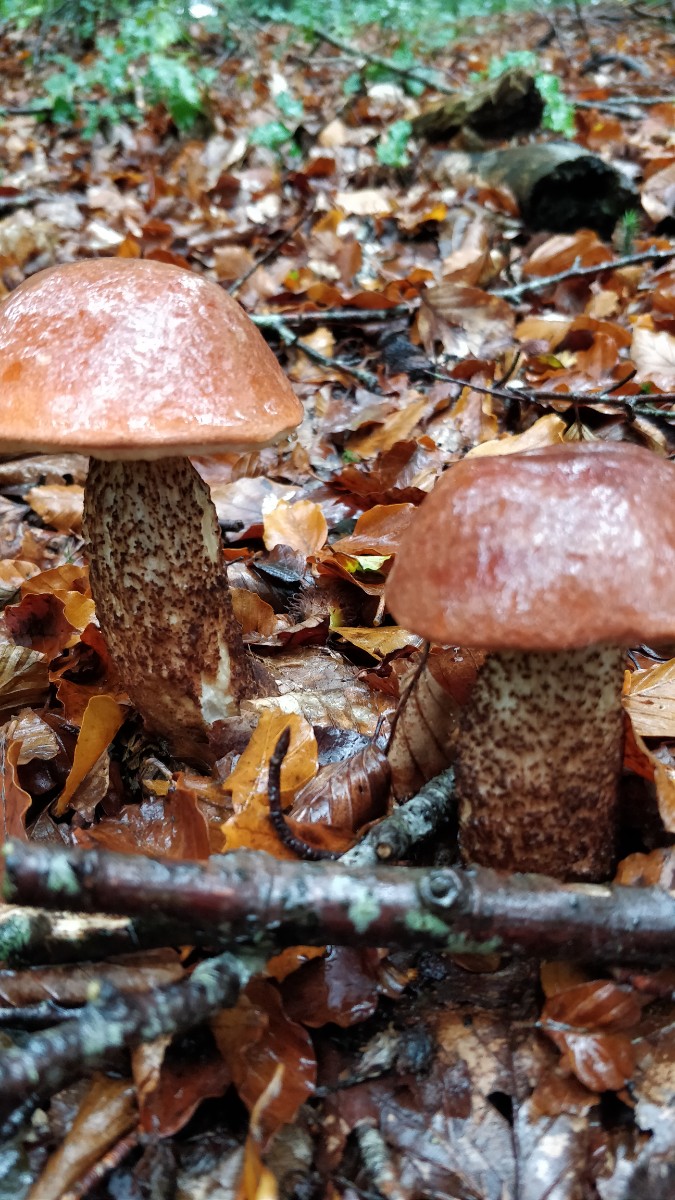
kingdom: Fungi
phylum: Basidiomycota
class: Agaricomycetes
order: Boletales
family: Boletaceae
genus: Leccinum
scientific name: Leccinum aurantiacum
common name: rustrød skælrørhat
